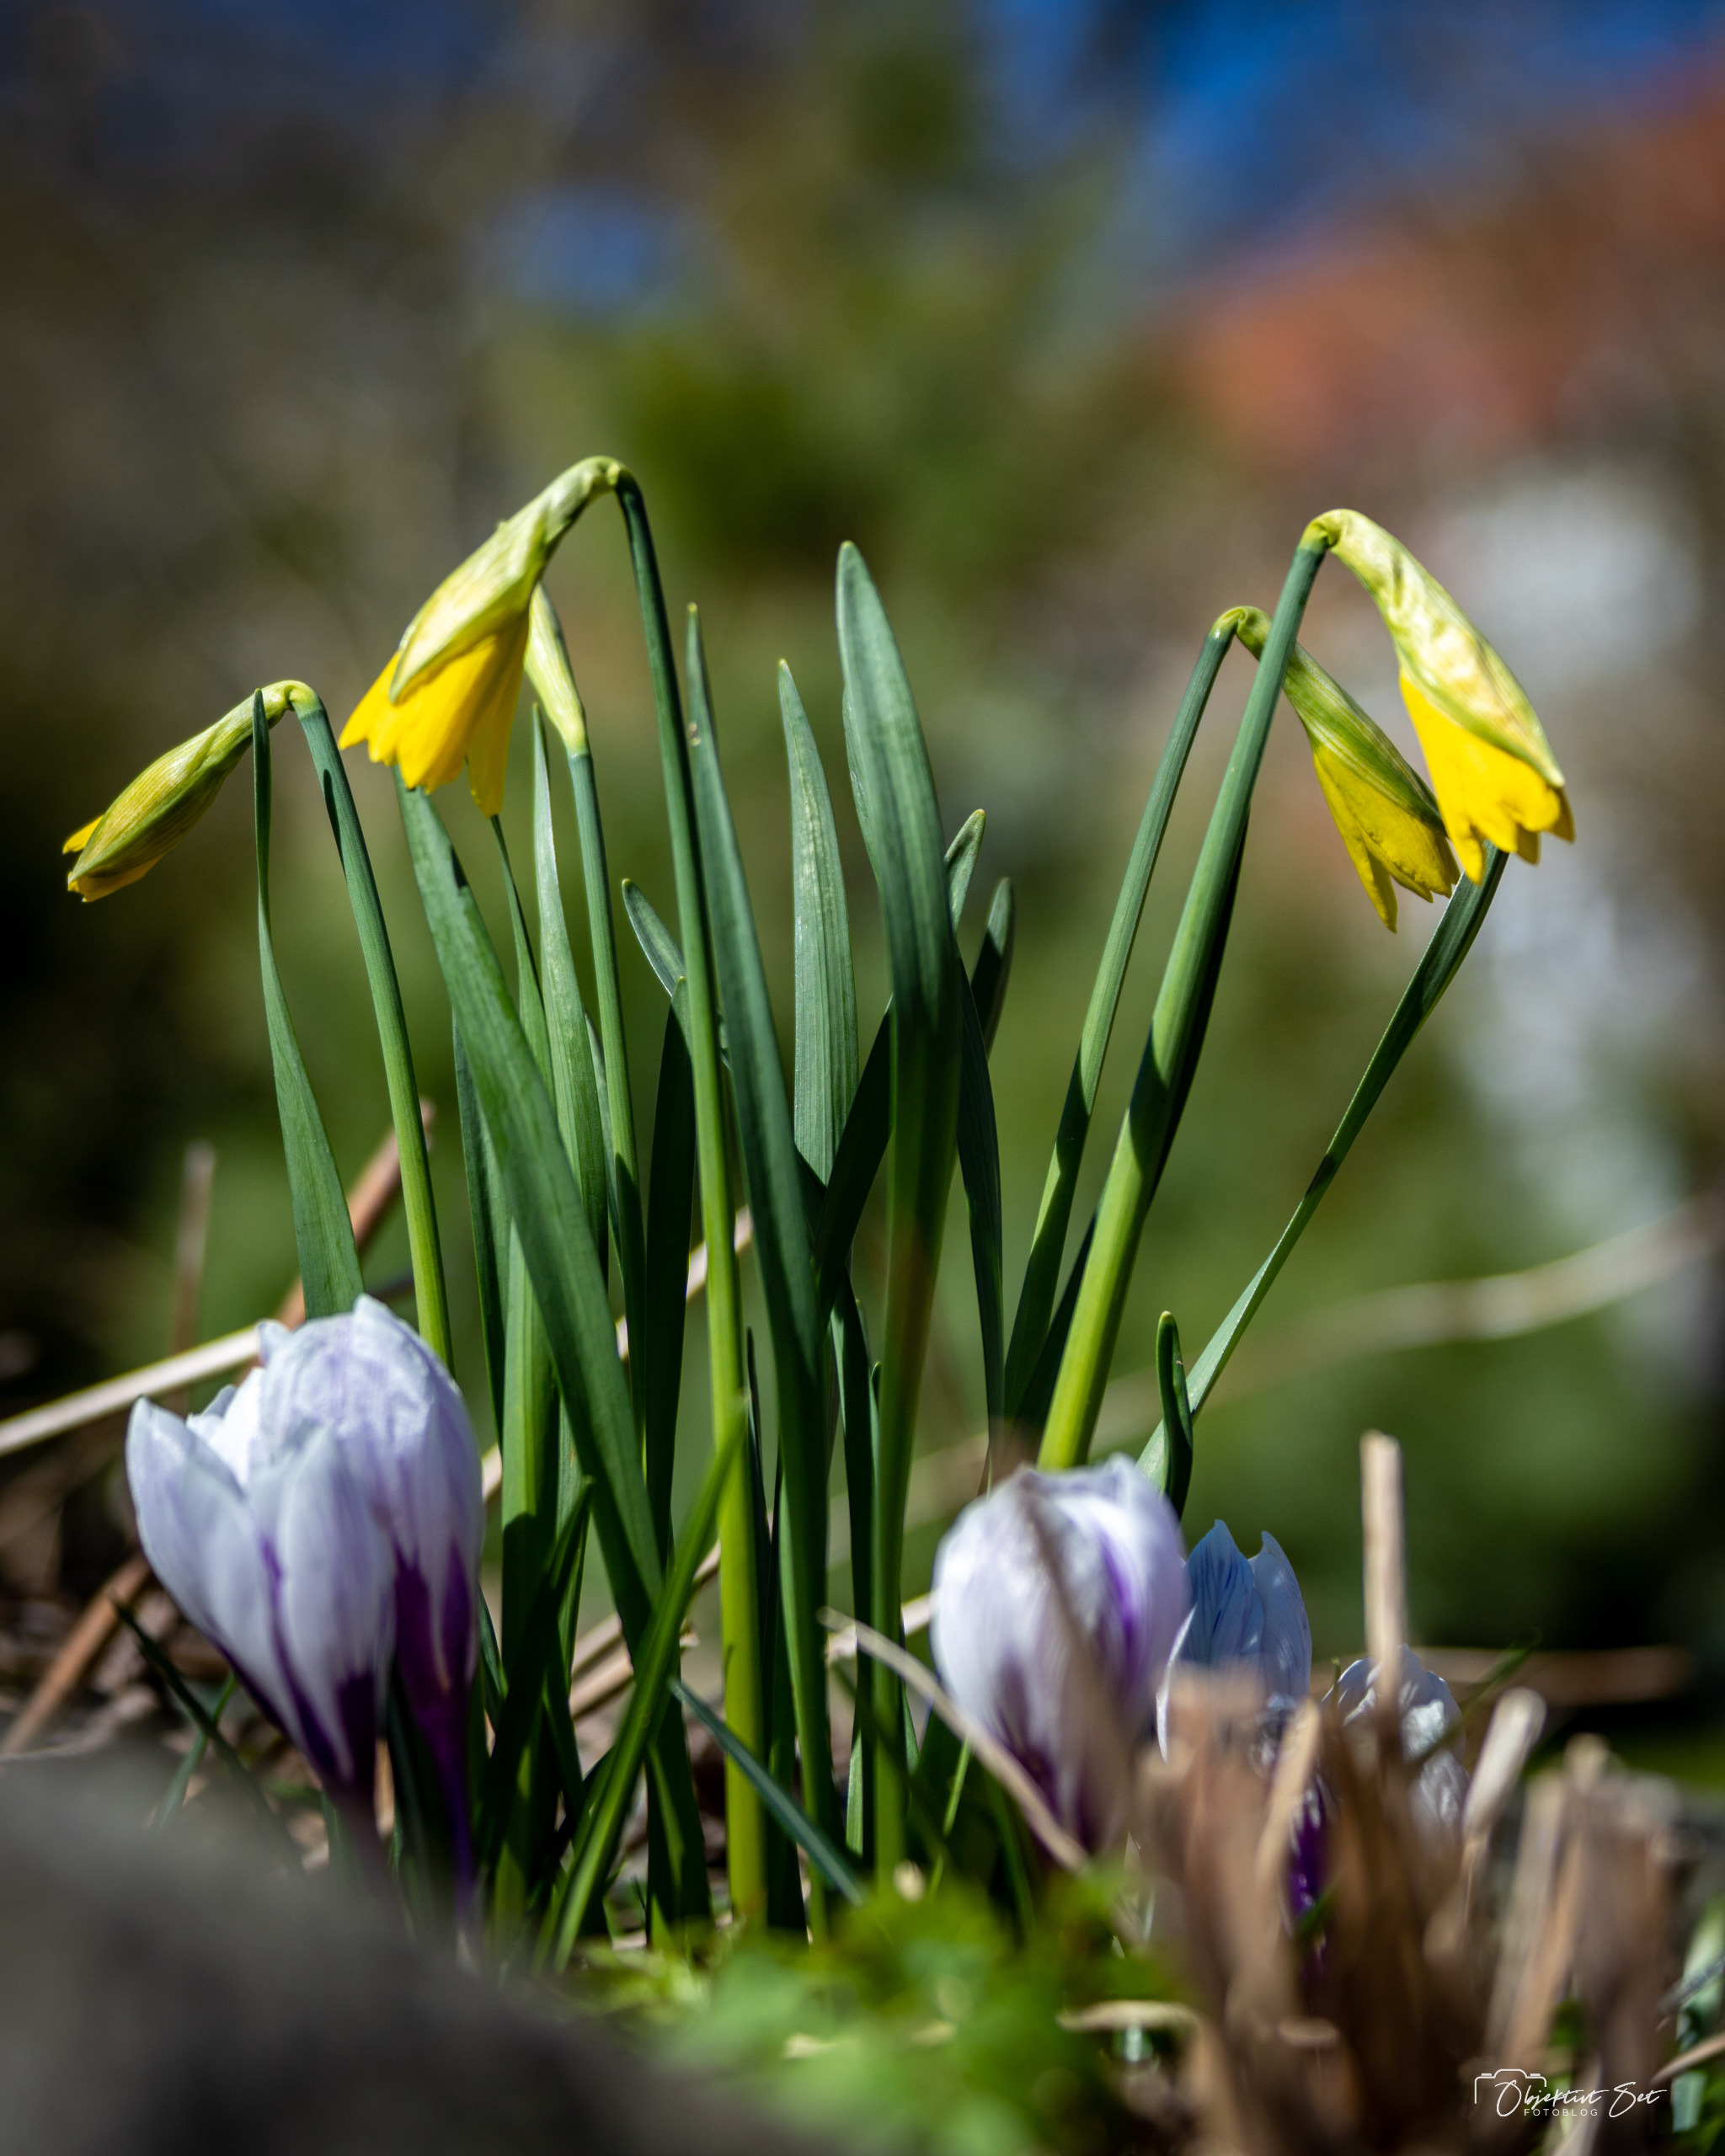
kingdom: Plantae
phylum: Tracheophyta
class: Liliopsida
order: Asparagales
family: Amaryllidaceae
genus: Narcissus
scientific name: Narcissus pseudonarcissus
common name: Påskelilje
